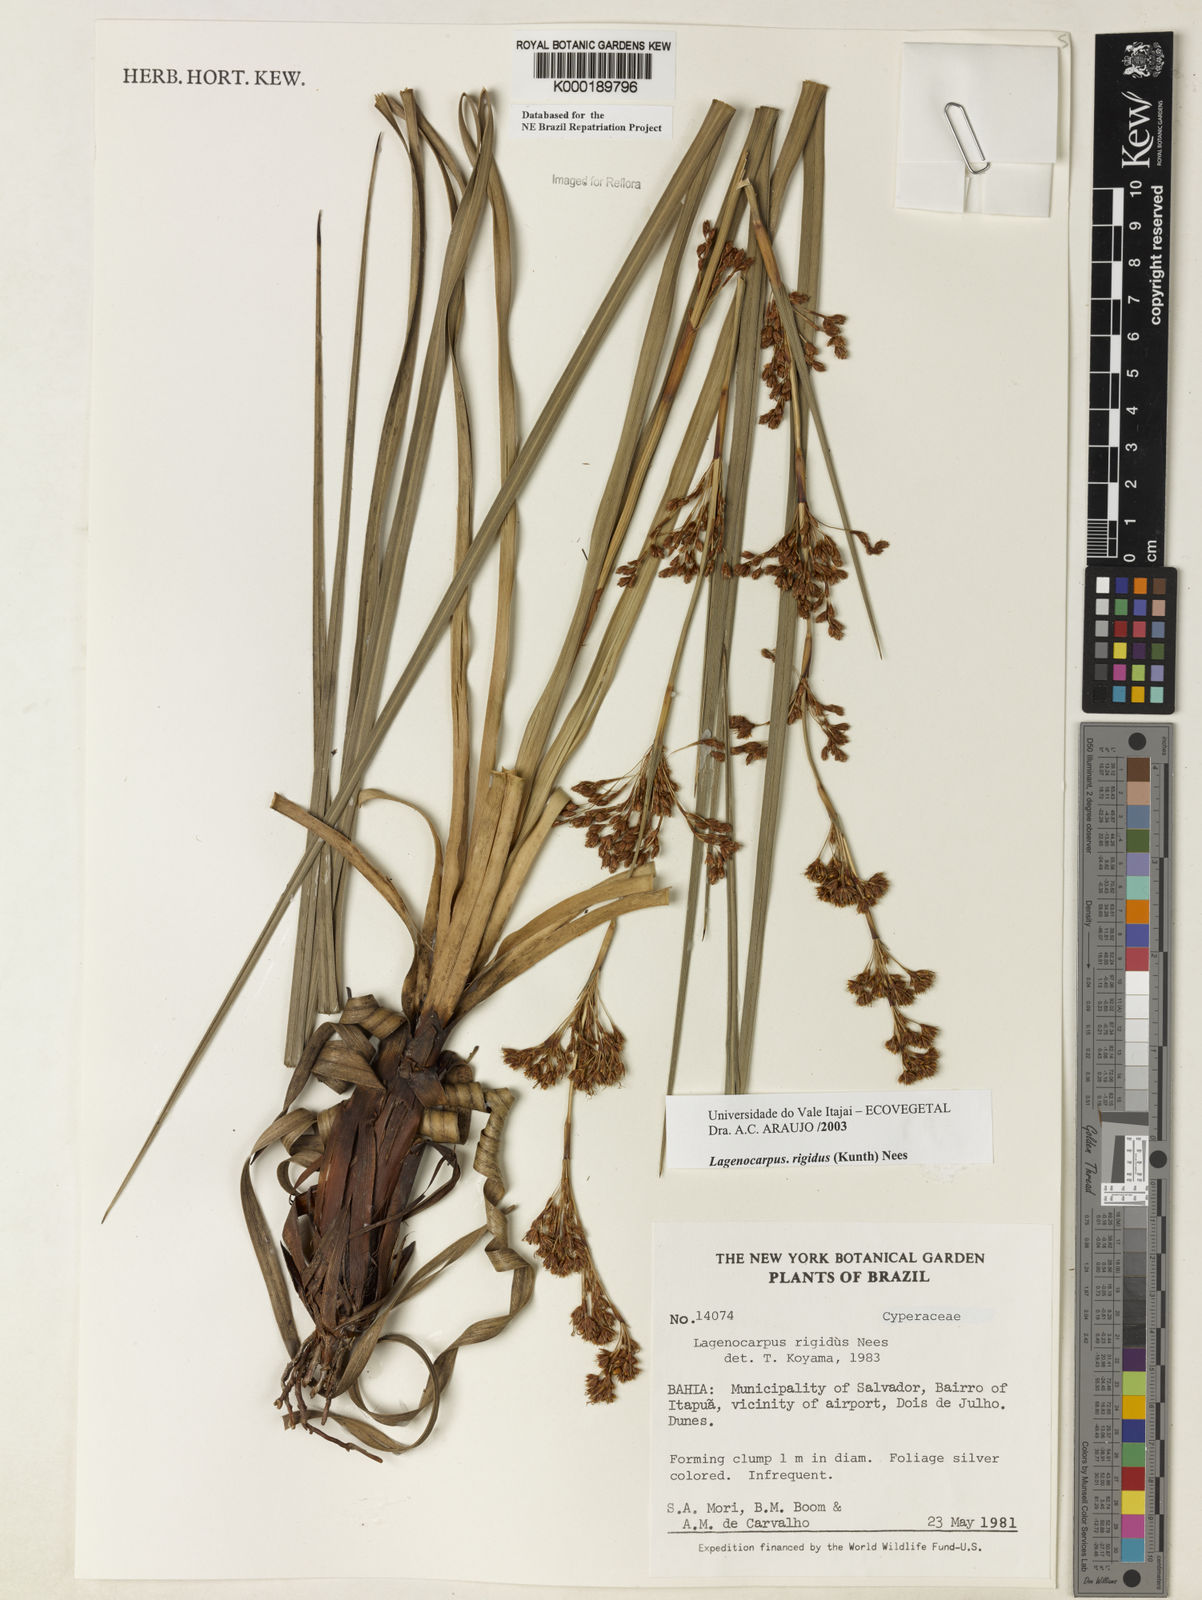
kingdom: Plantae
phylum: Tracheophyta
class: Liliopsida
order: Poales
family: Cyperaceae
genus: Lagenocarpus
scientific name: Lagenocarpus rigidus
